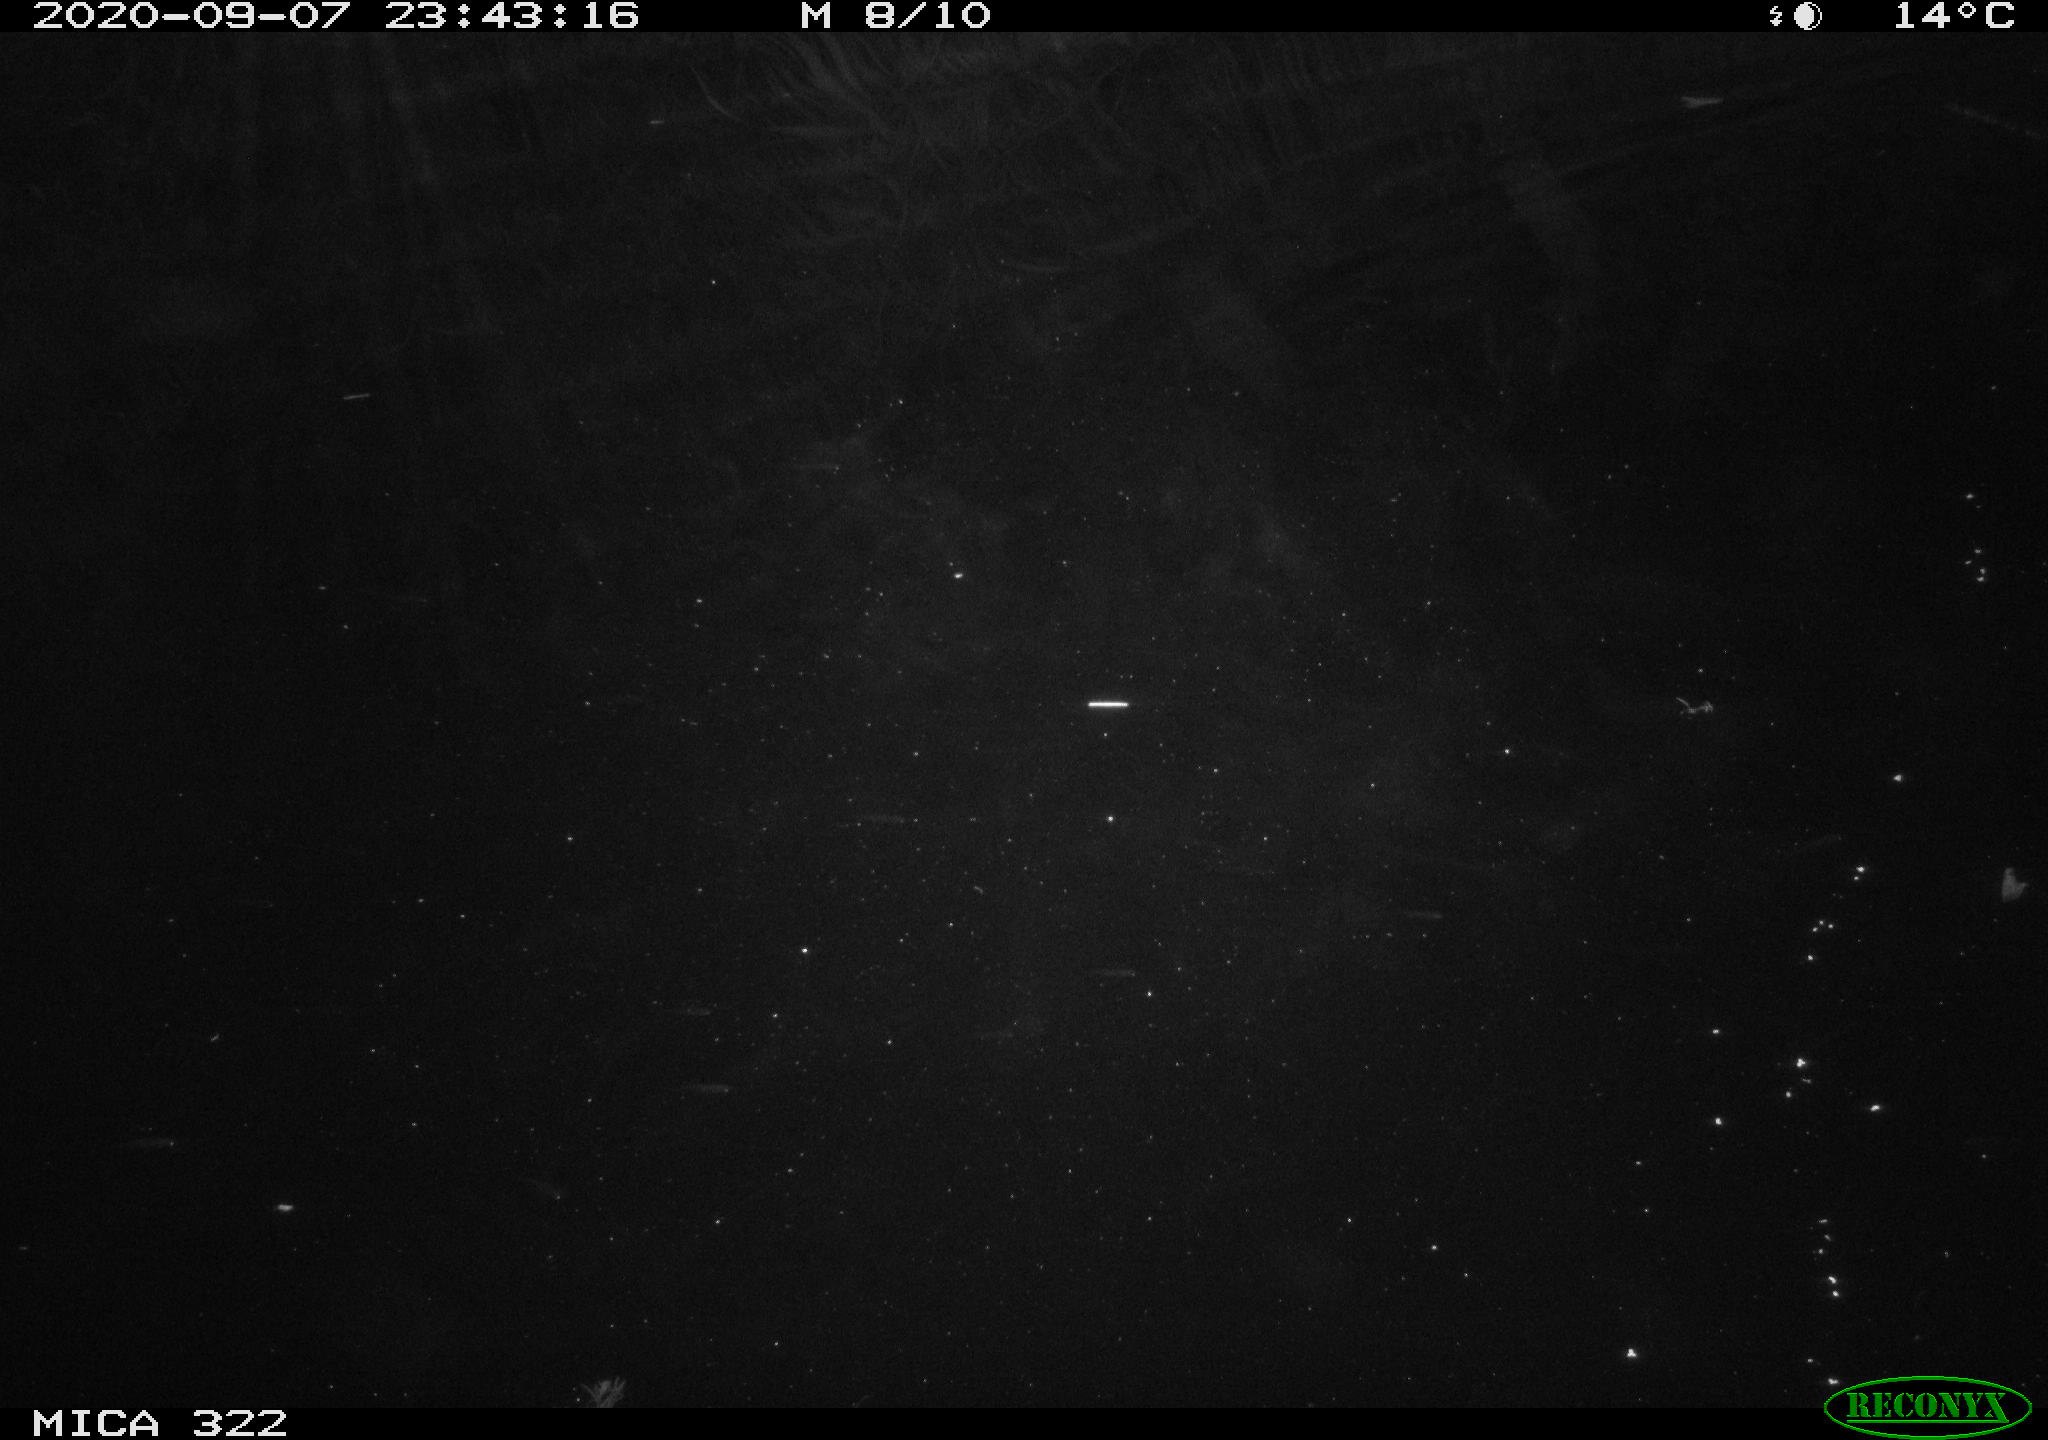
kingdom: Animalia
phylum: Chordata
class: Mammalia
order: Rodentia
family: Muridae
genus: Rattus
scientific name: Rattus norvegicus
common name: Brown rat
